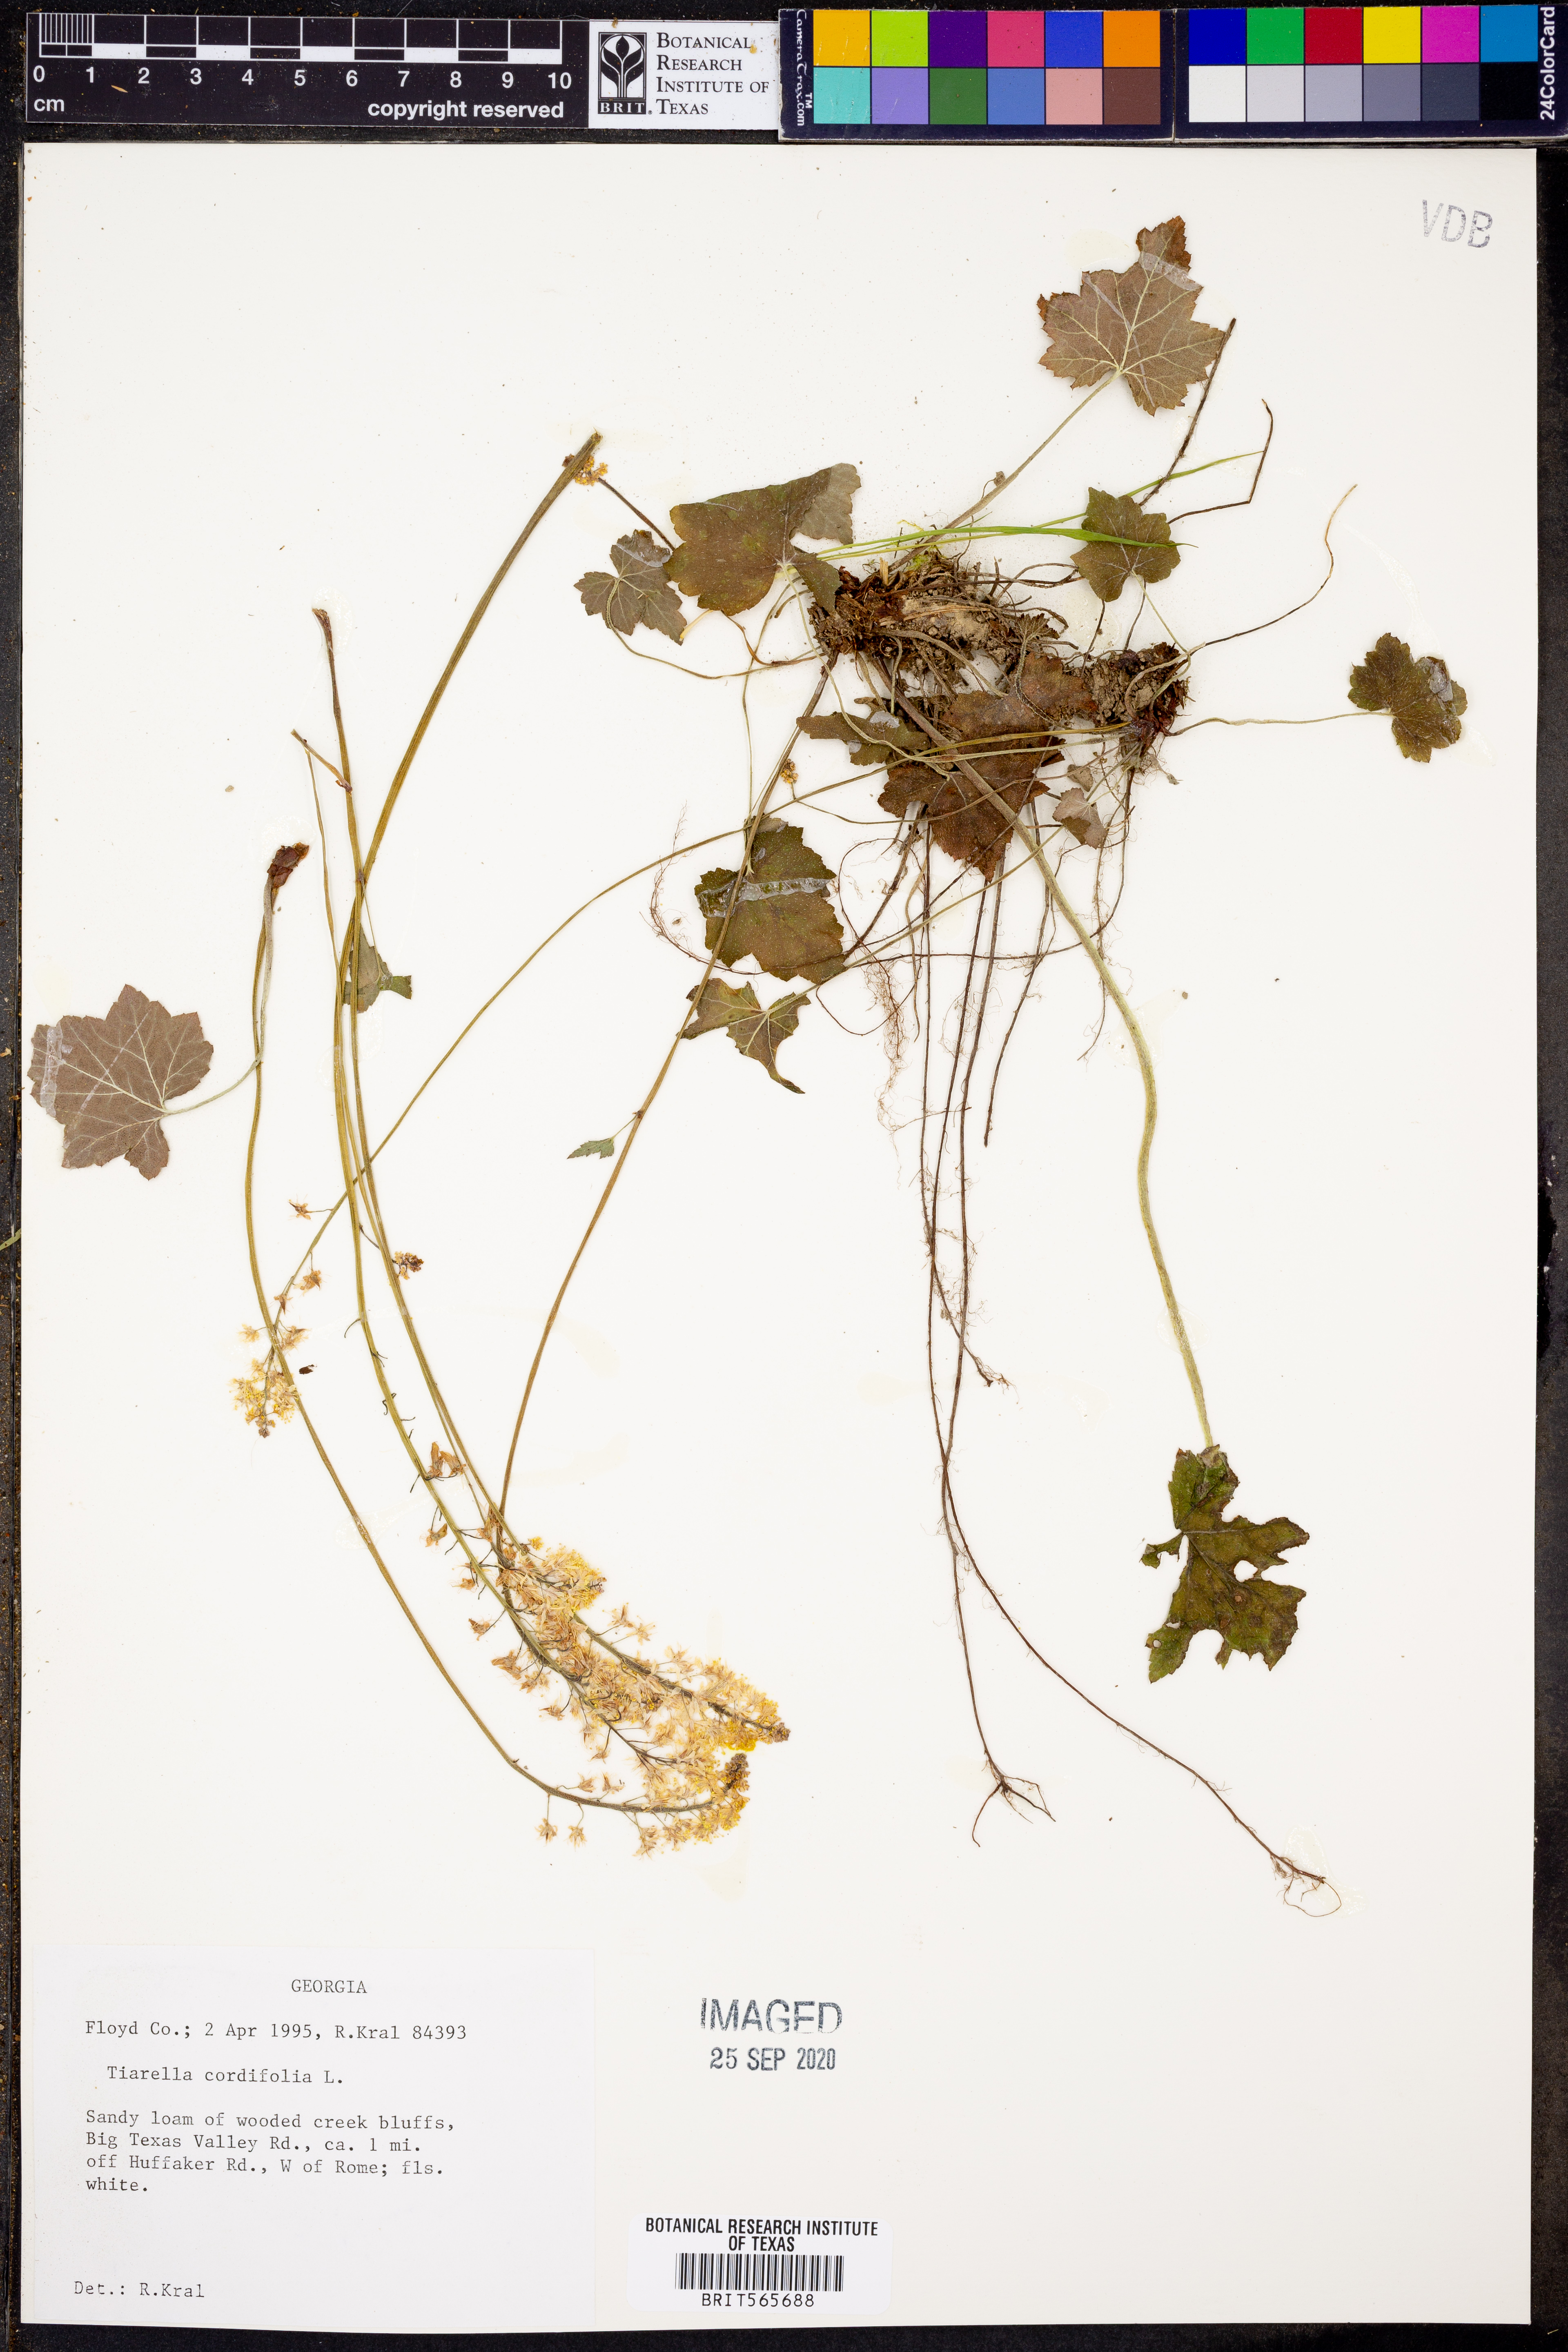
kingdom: Plantae
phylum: Tracheophyta
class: Magnoliopsida
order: Saxifragales
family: Saxifragaceae
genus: Tiarella
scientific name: Tiarella cordifolia
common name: Foamflower
